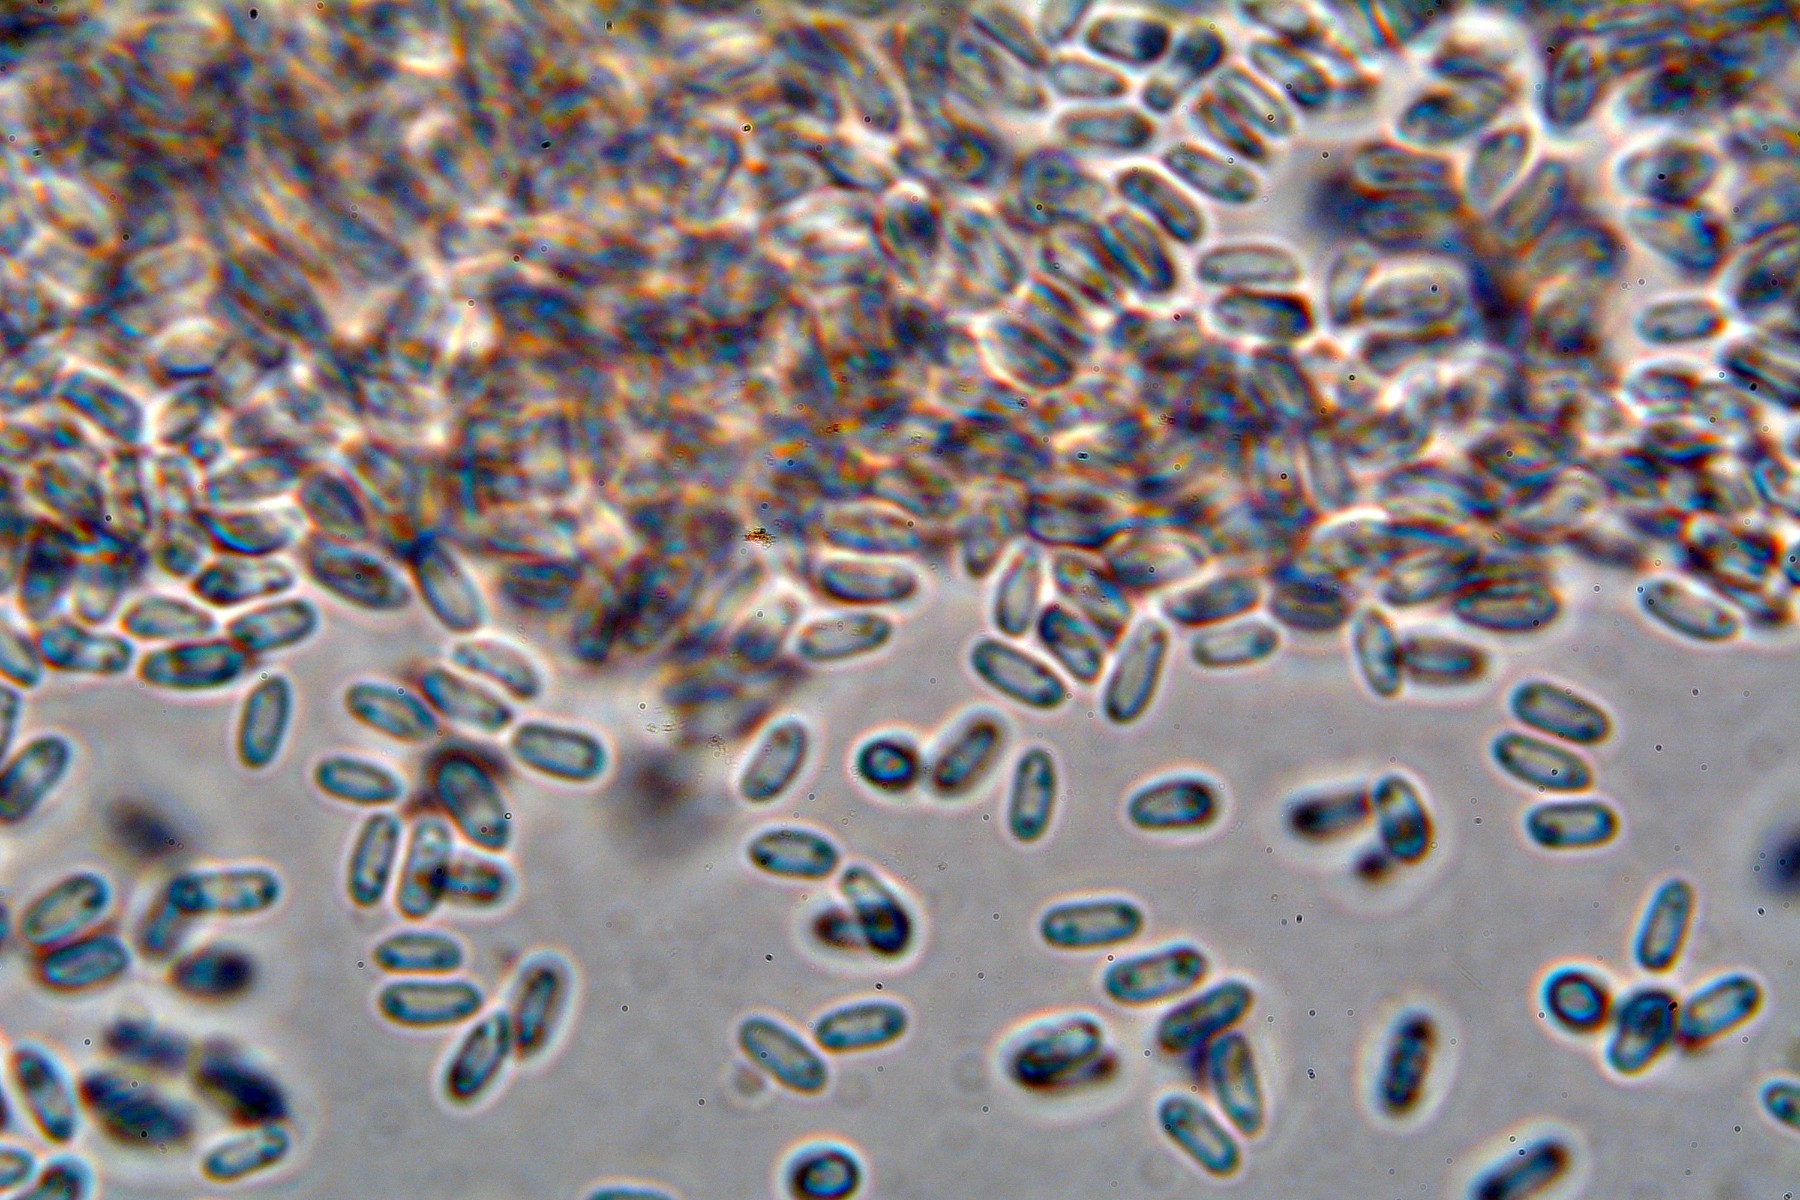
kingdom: Fungi
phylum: Ascomycota
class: Dothideomycetes
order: Pleosporales
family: Didymellaceae
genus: Phoma
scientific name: Phoma
